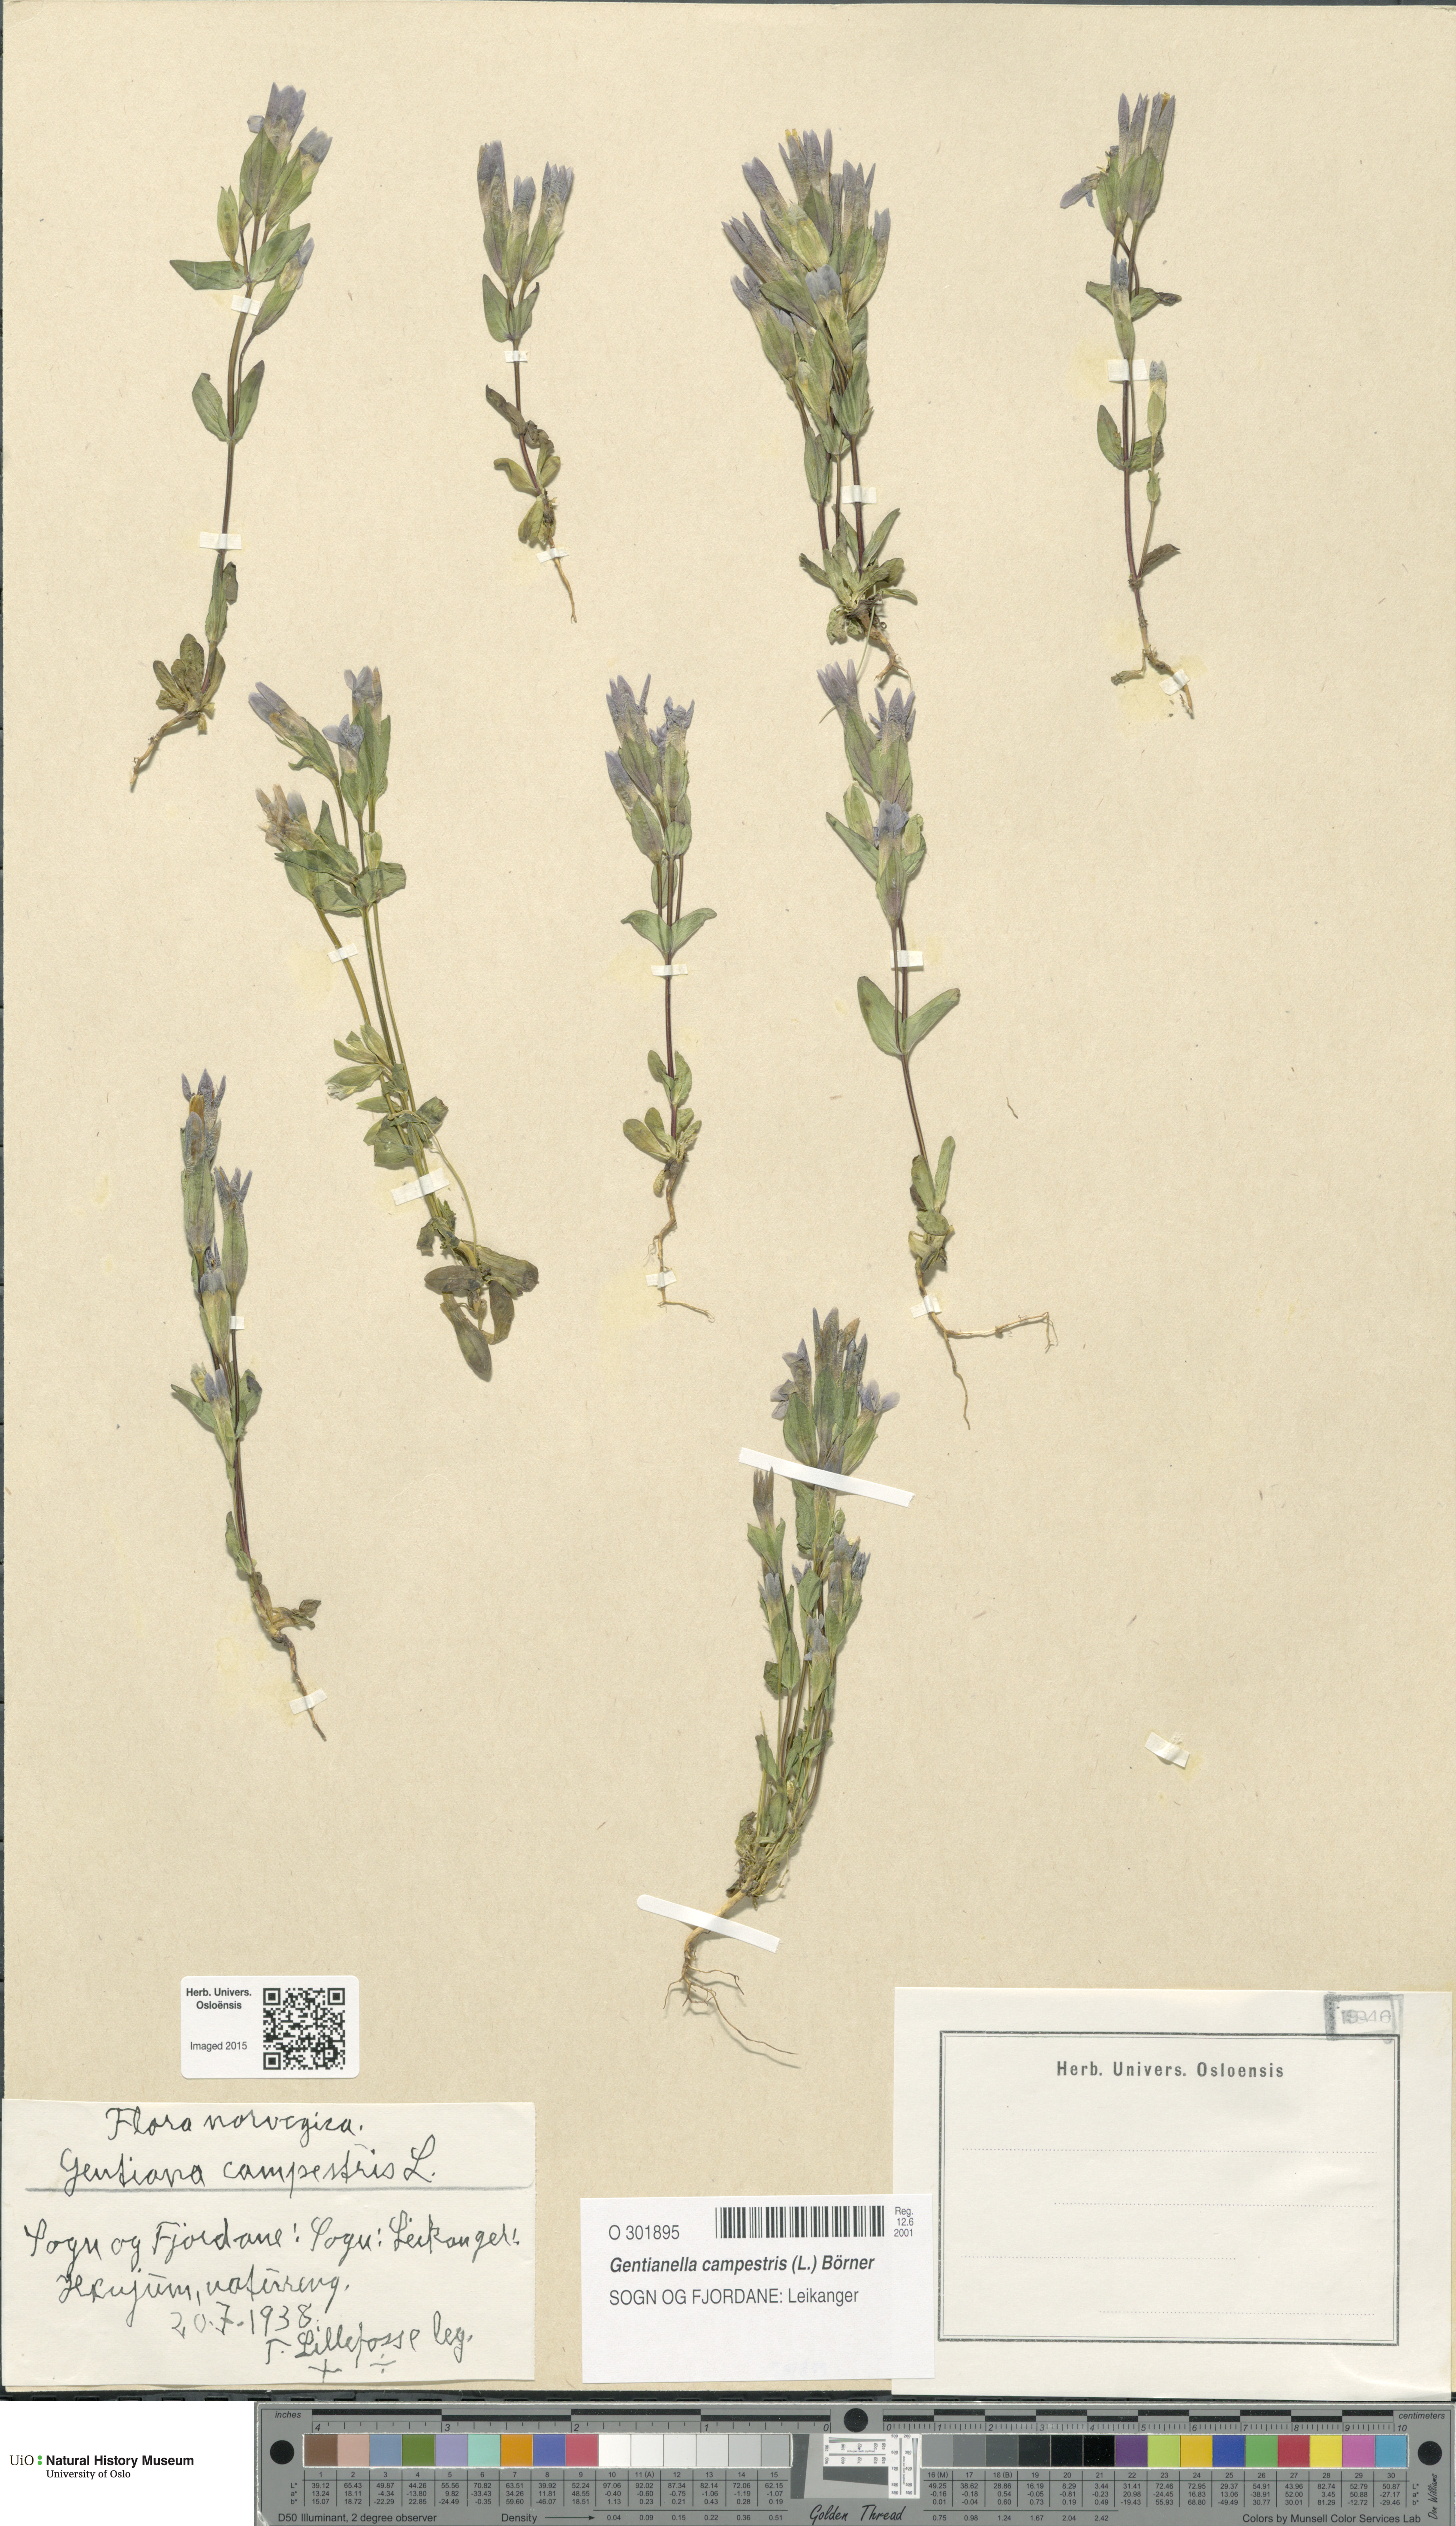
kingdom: Plantae
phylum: Tracheophyta
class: Magnoliopsida
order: Gentianales
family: Gentianaceae
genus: Gentianella
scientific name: Gentianella campestris
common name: Field gentian
